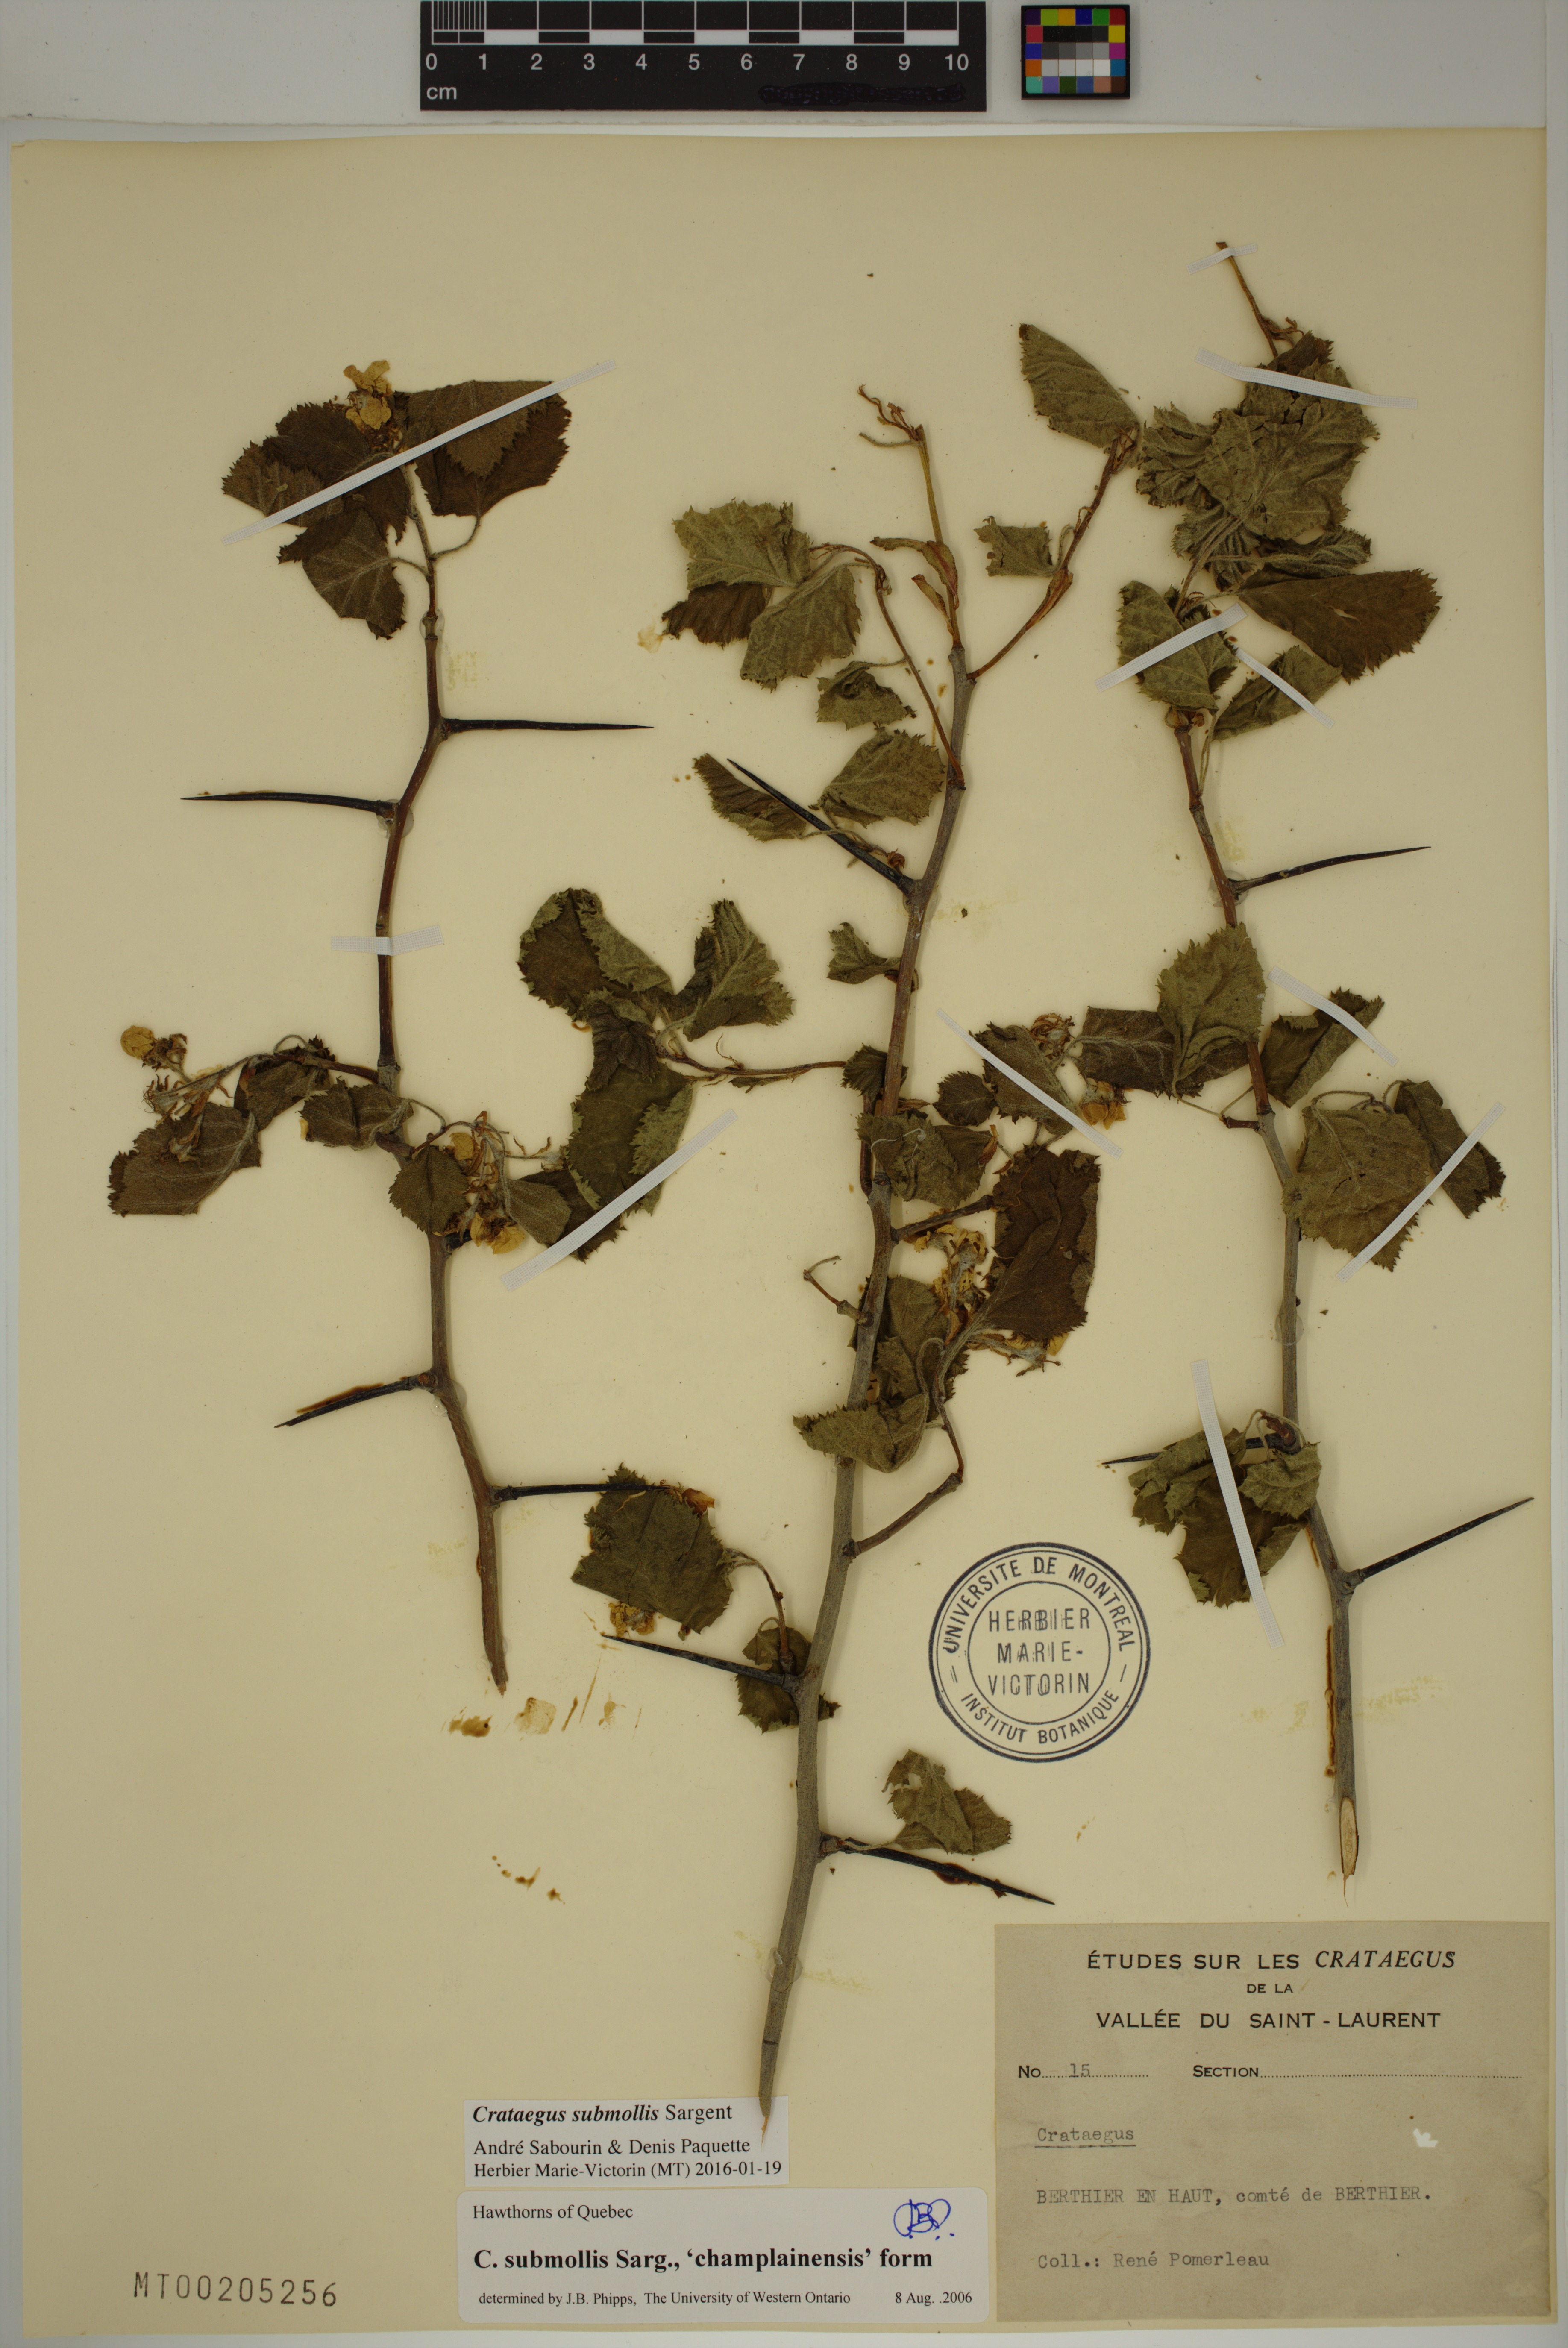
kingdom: Plantae
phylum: Tracheophyta
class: Magnoliopsida
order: Rosales
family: Rosaceae
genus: Crataegus
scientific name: Crataegus submollis
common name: Hairy cockspurthorn
